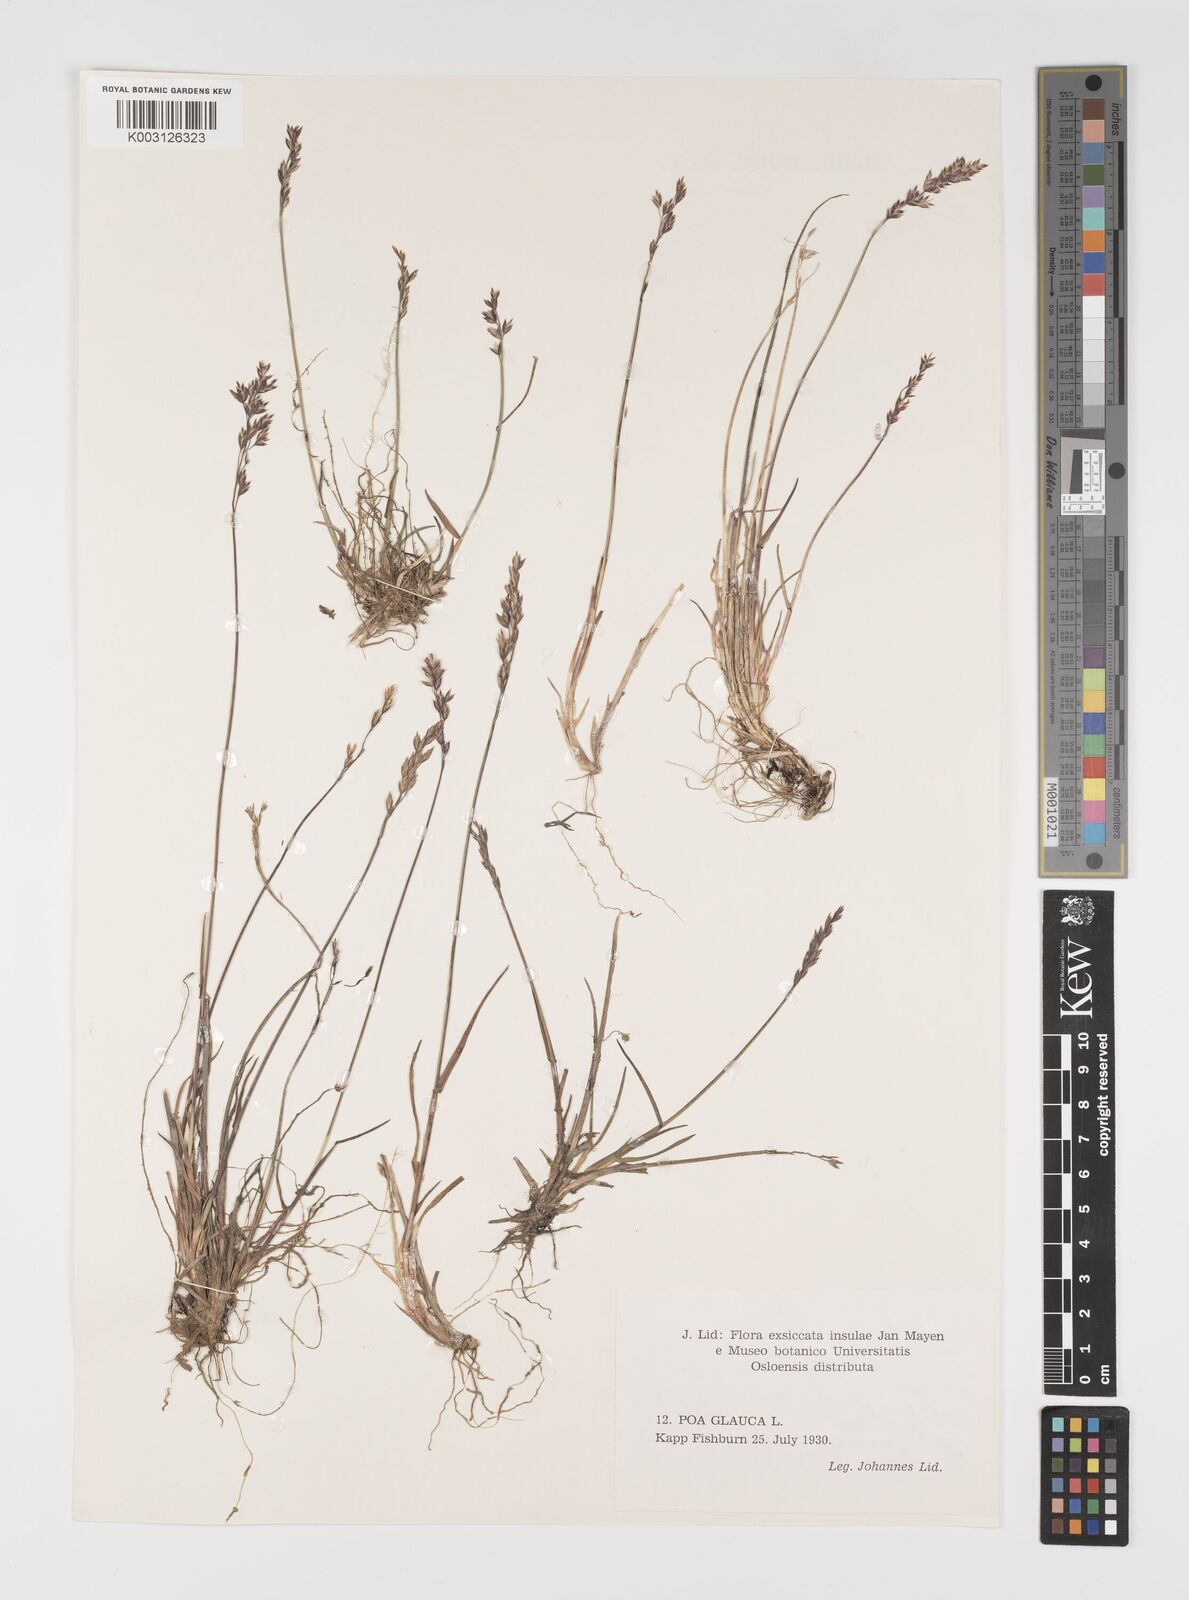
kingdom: Plantae
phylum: Tracheophyta
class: Liliopsida
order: Poales
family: Poaceae
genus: Poa
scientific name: Poa glauca
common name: Glaucous bluegrass
